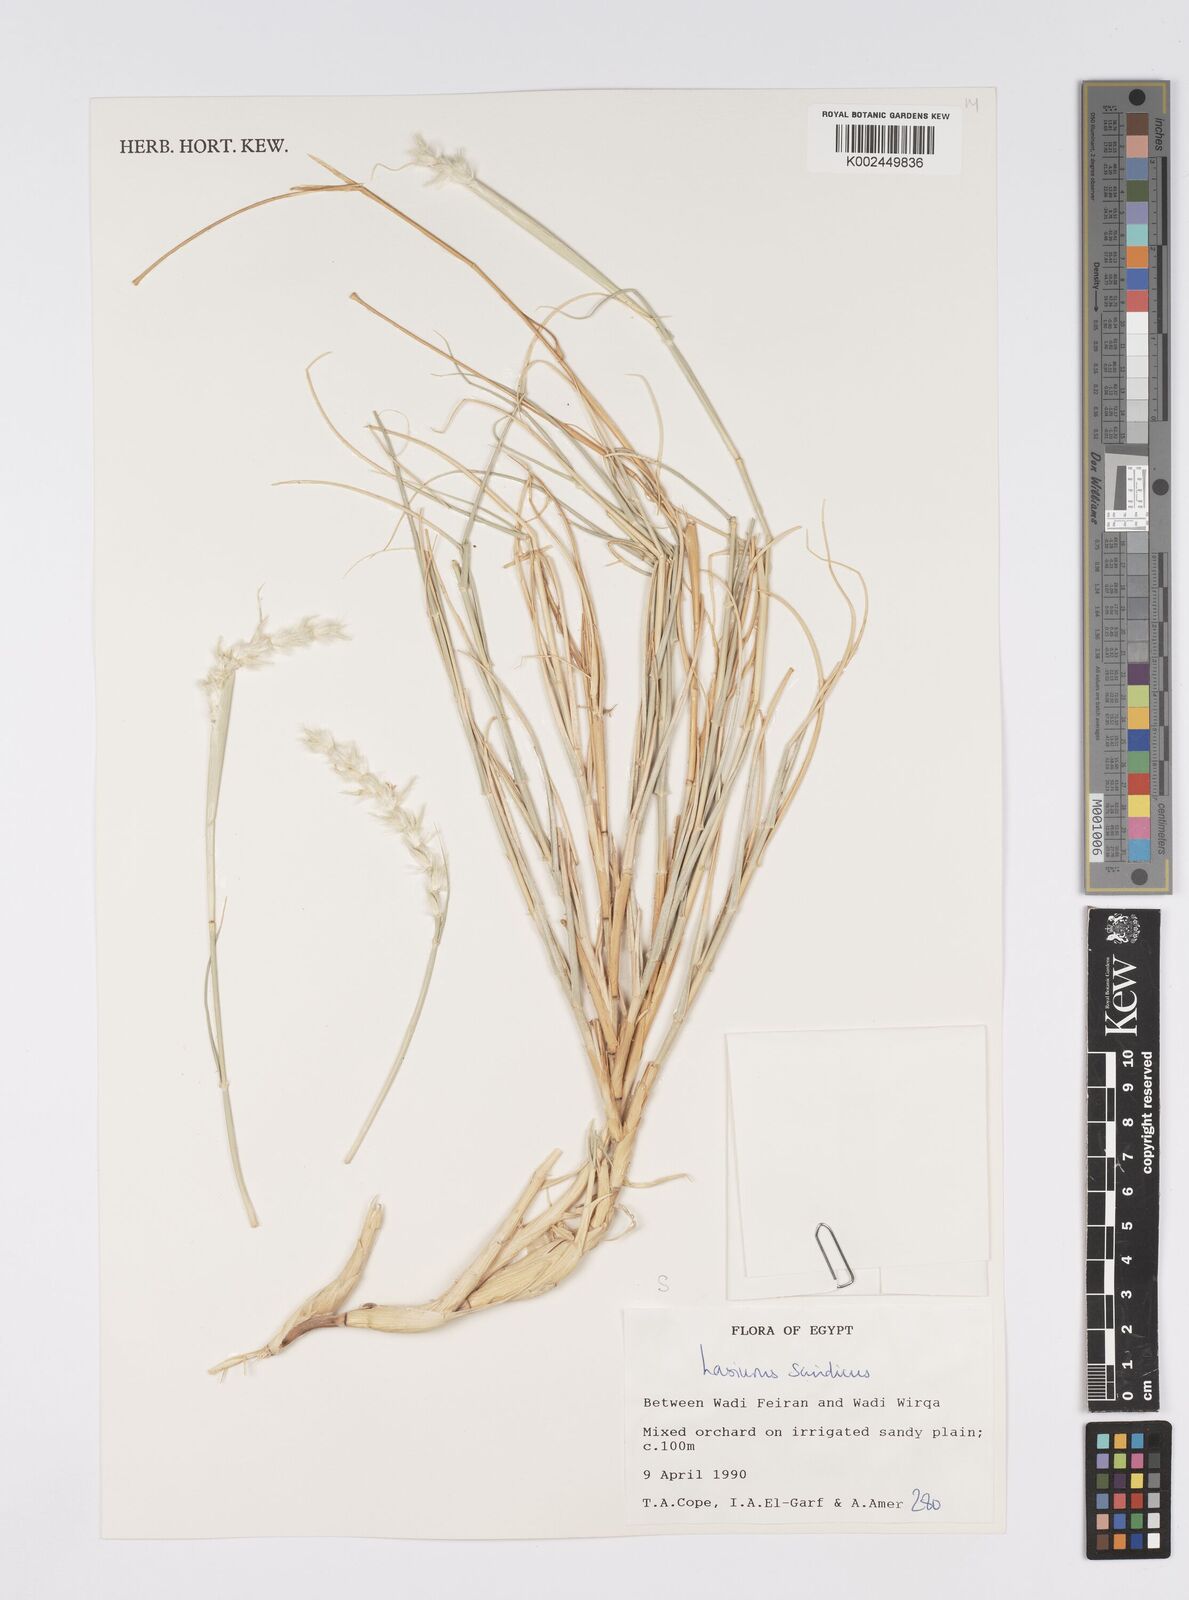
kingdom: Plantae
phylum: Tracheophyta
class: Liliopsida
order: Poales
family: Poaceae
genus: Lasiurus
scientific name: Lasiurus scindicus
